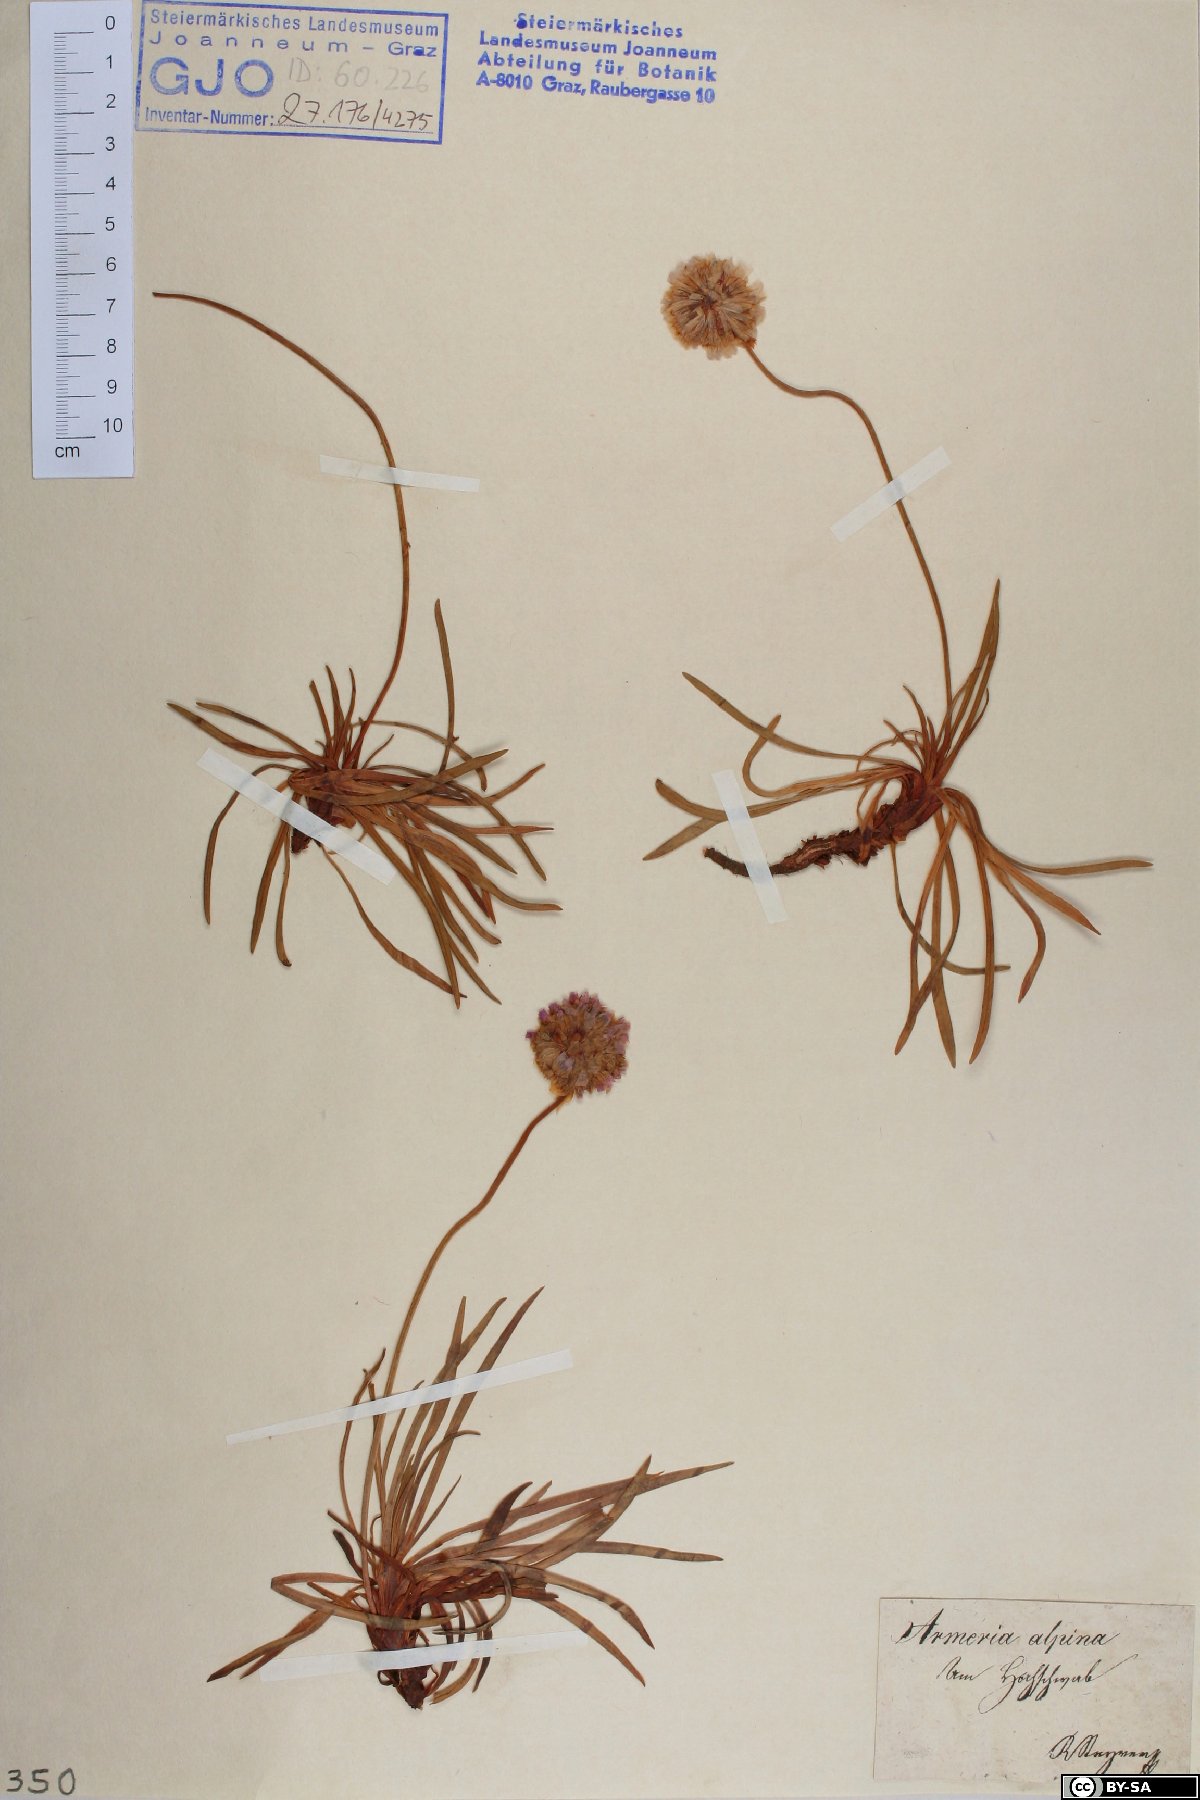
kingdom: Plantae
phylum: Tracheophyta
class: Magnoliopsida
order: Caryophyllales
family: Plumbaginaceae
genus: Armeria
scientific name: Armeria alpina
